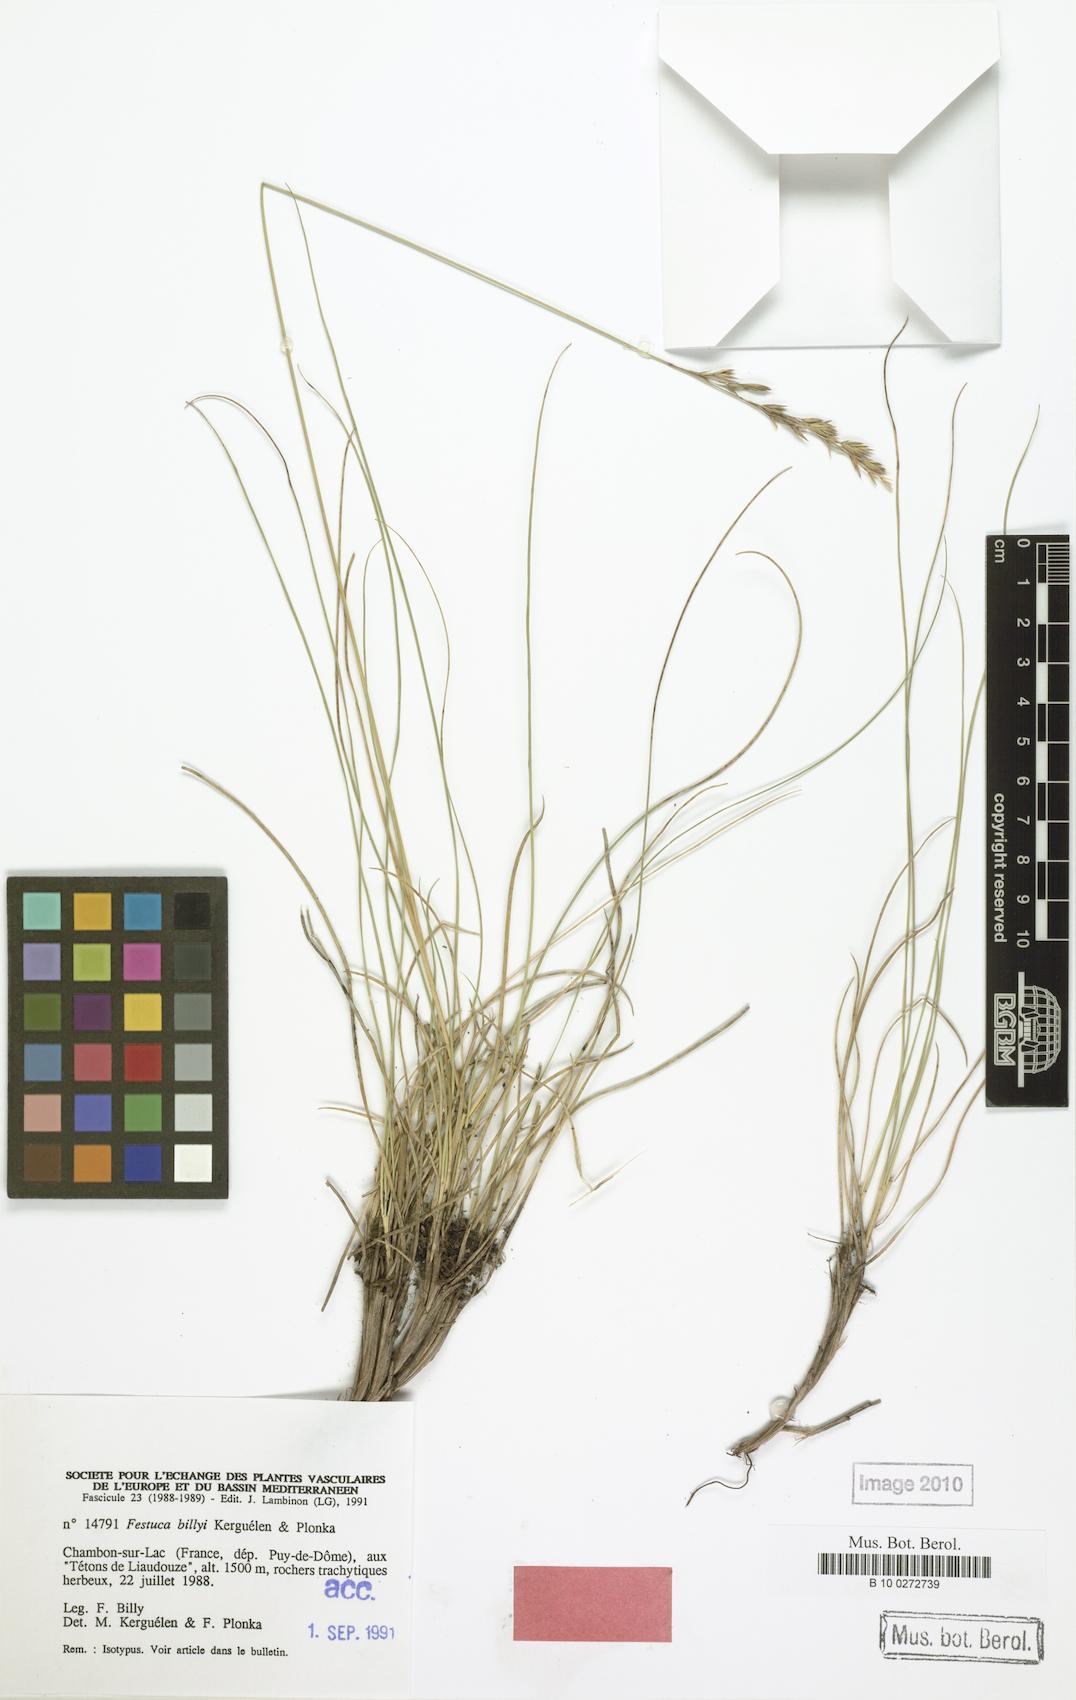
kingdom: Plantae
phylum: Tracheophyta
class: Liliopsida
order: Poales
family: Poaceae
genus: Festuca
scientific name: Festuca billyi
